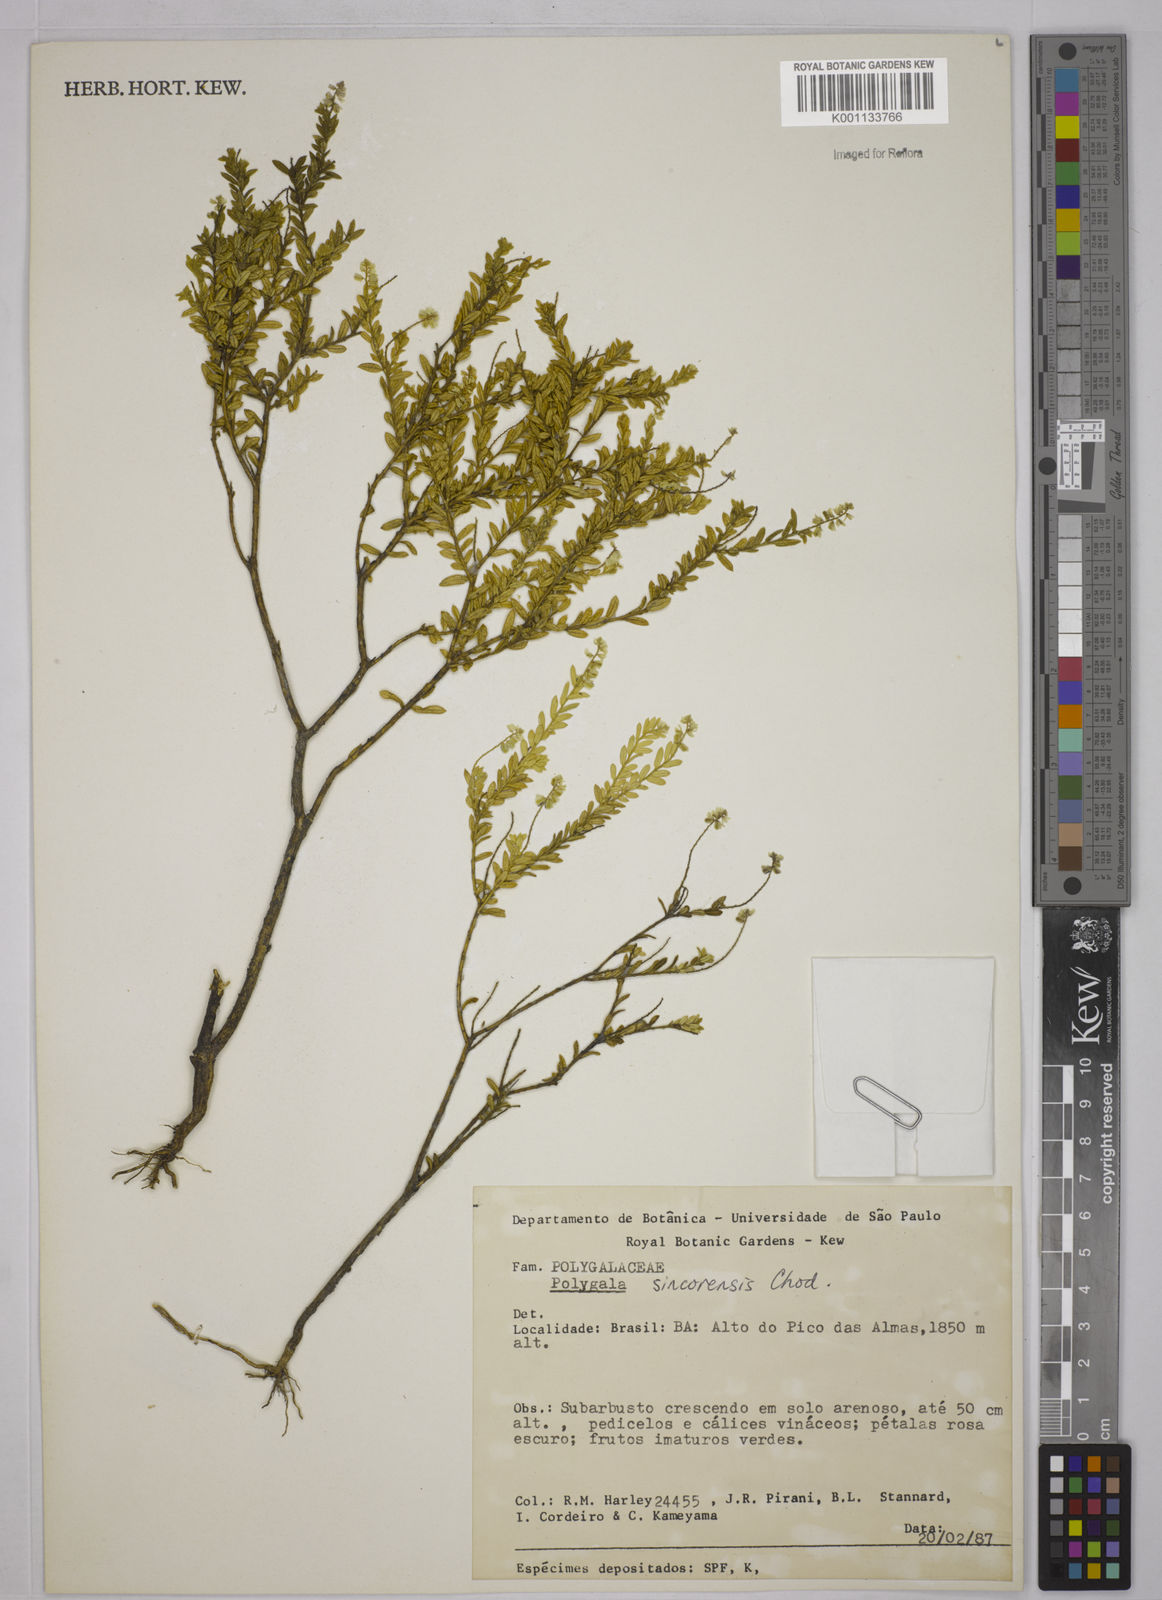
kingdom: Plantae
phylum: Tracheophyta
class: Magnoliopsida
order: Fabales
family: Polygalaceae
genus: Polygala
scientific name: Polygala sincorensis
